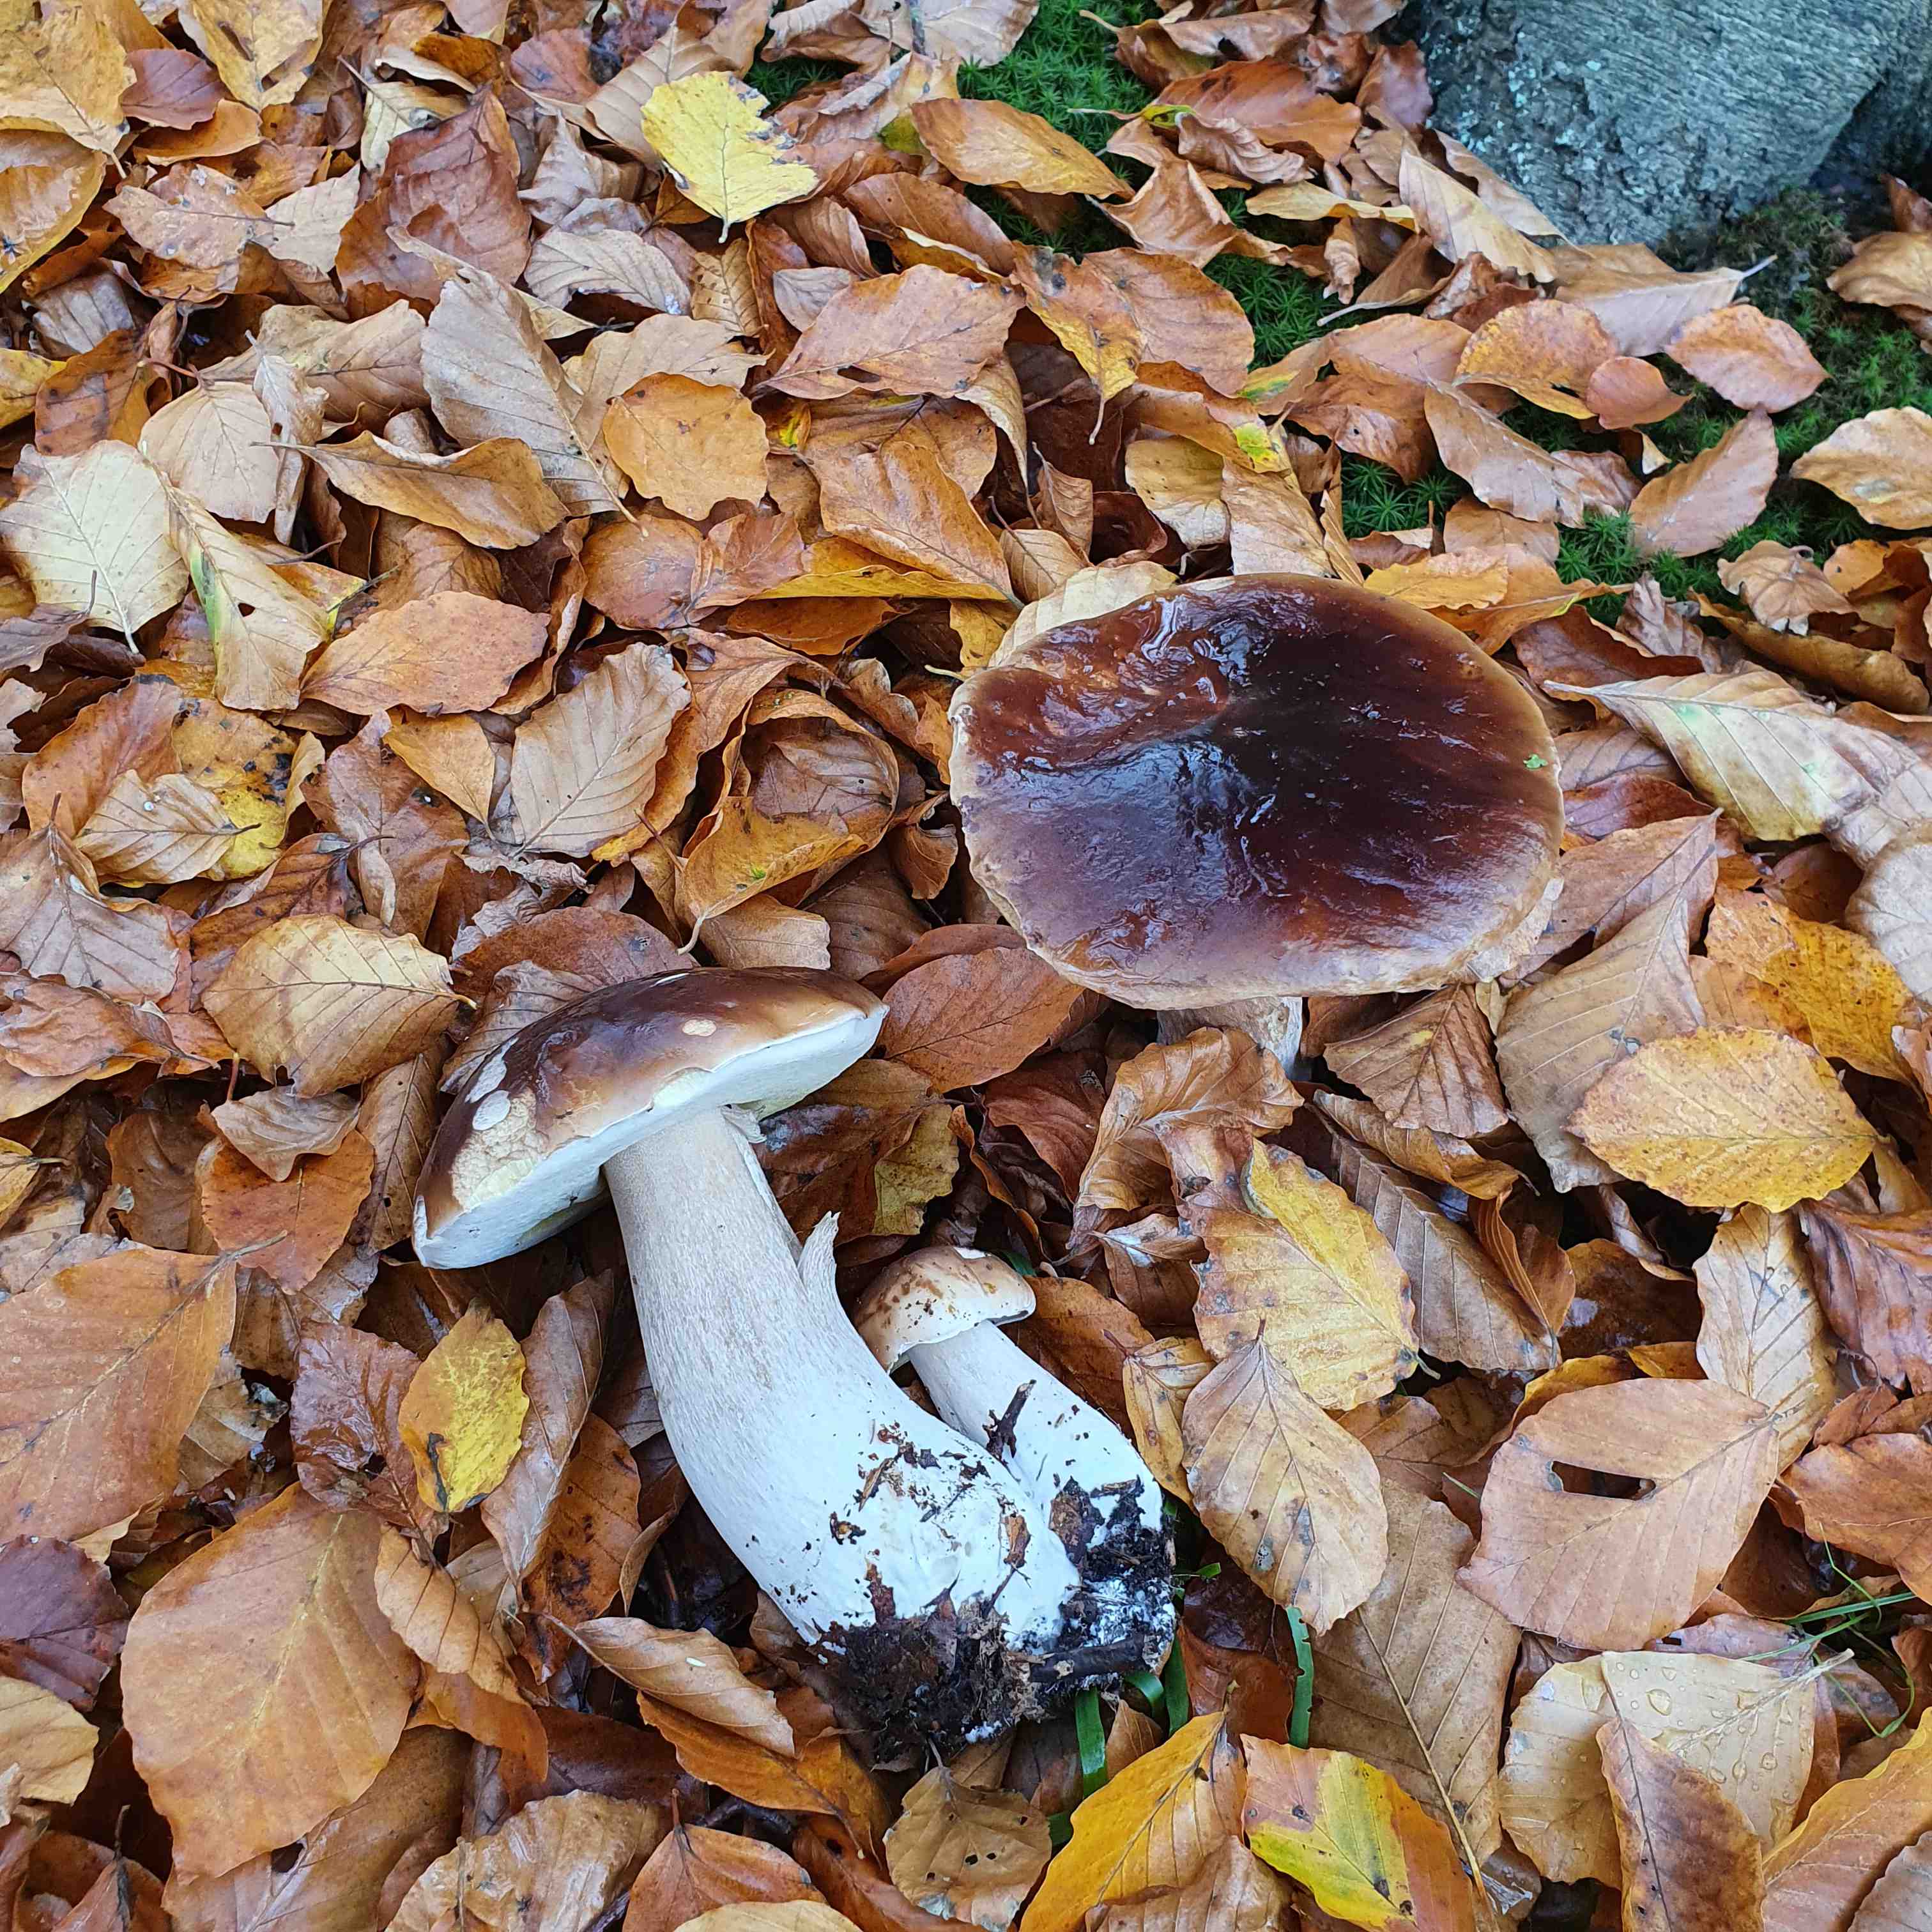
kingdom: Fungi
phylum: Basidiomycota
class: Agaricomycetes
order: Boletales
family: Boletaceae
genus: Boletus
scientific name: Boletus edulis
